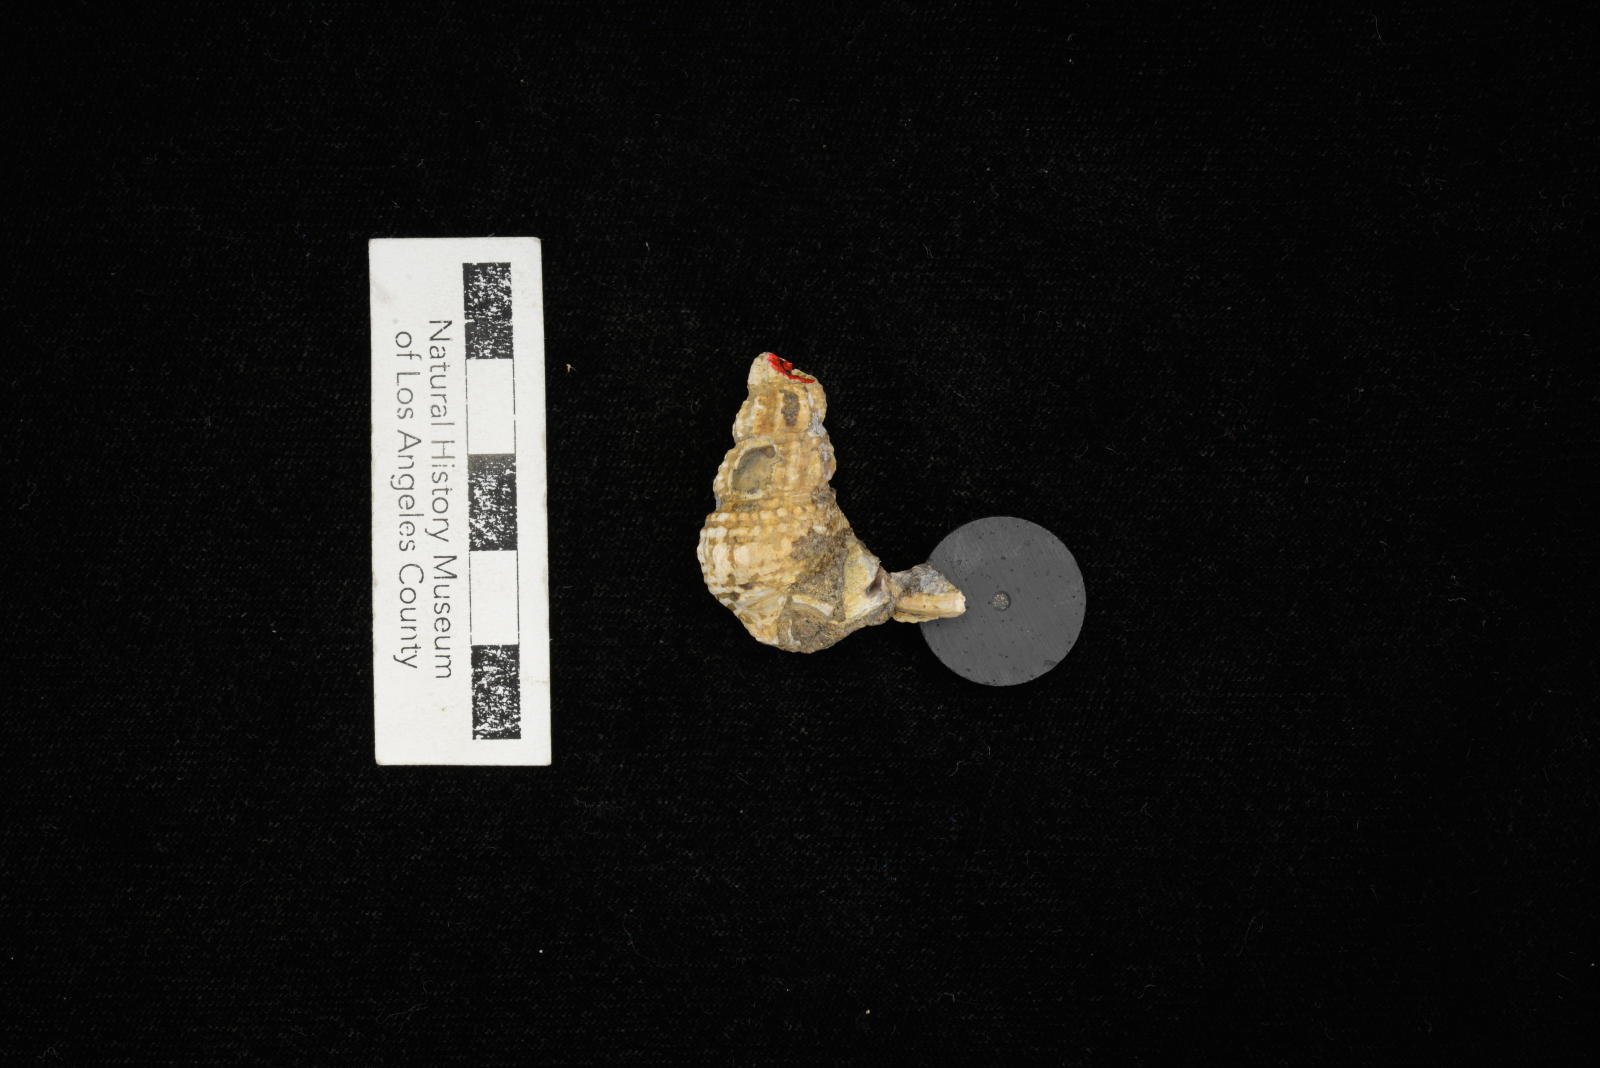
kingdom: Animalia
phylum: Mollusca
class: Gastropoda
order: Littorinimorpha
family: Aporrhaidae
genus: Anchura
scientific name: Anchura halberdopsis
